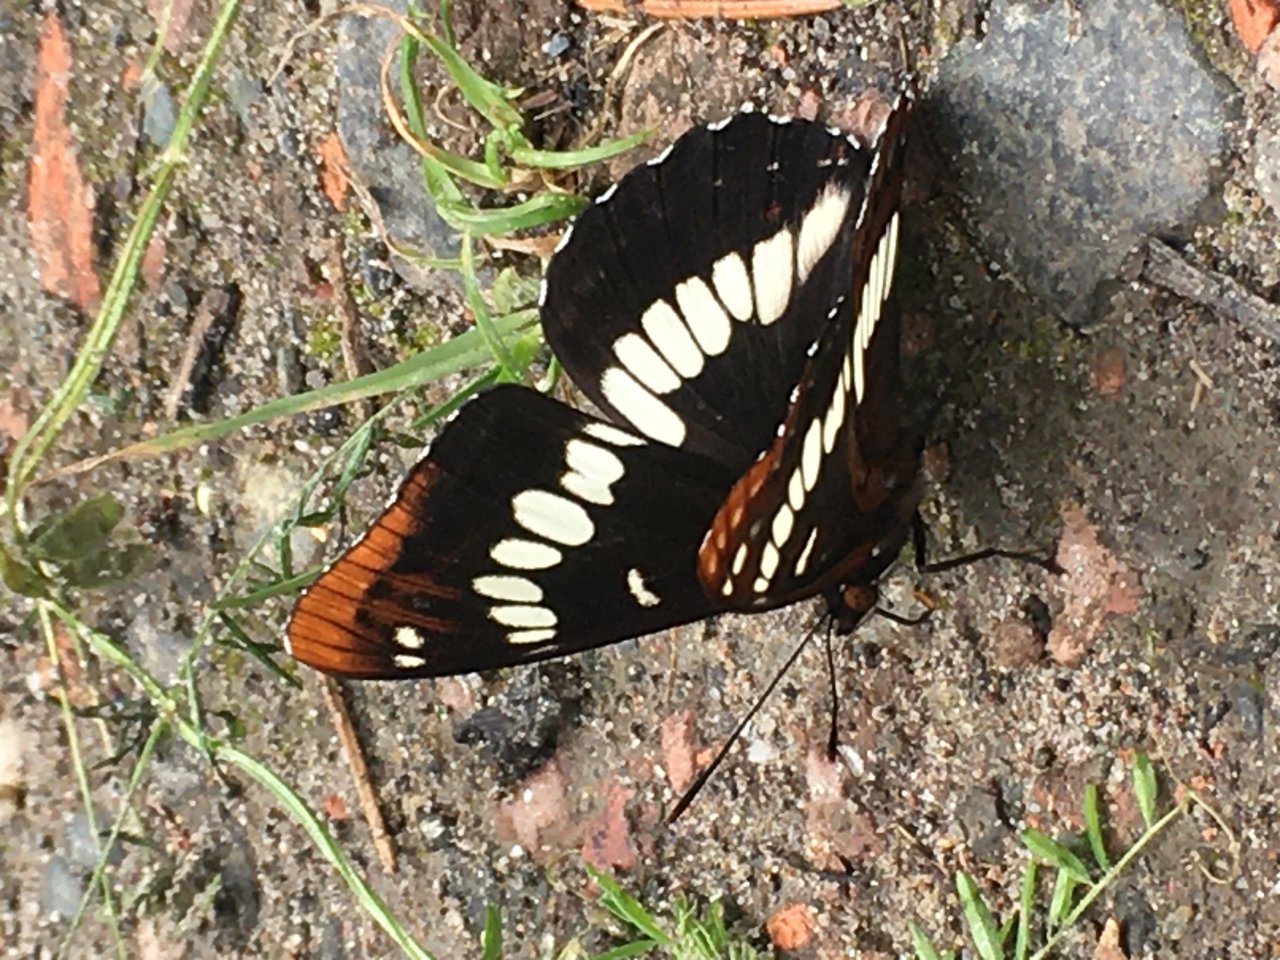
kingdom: Animalia
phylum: Arthropoda
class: Insecta
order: Lepidoptera
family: Nymphalidae
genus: Limenitis
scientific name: Limenitis lorquini
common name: Lorquin's Admiral
